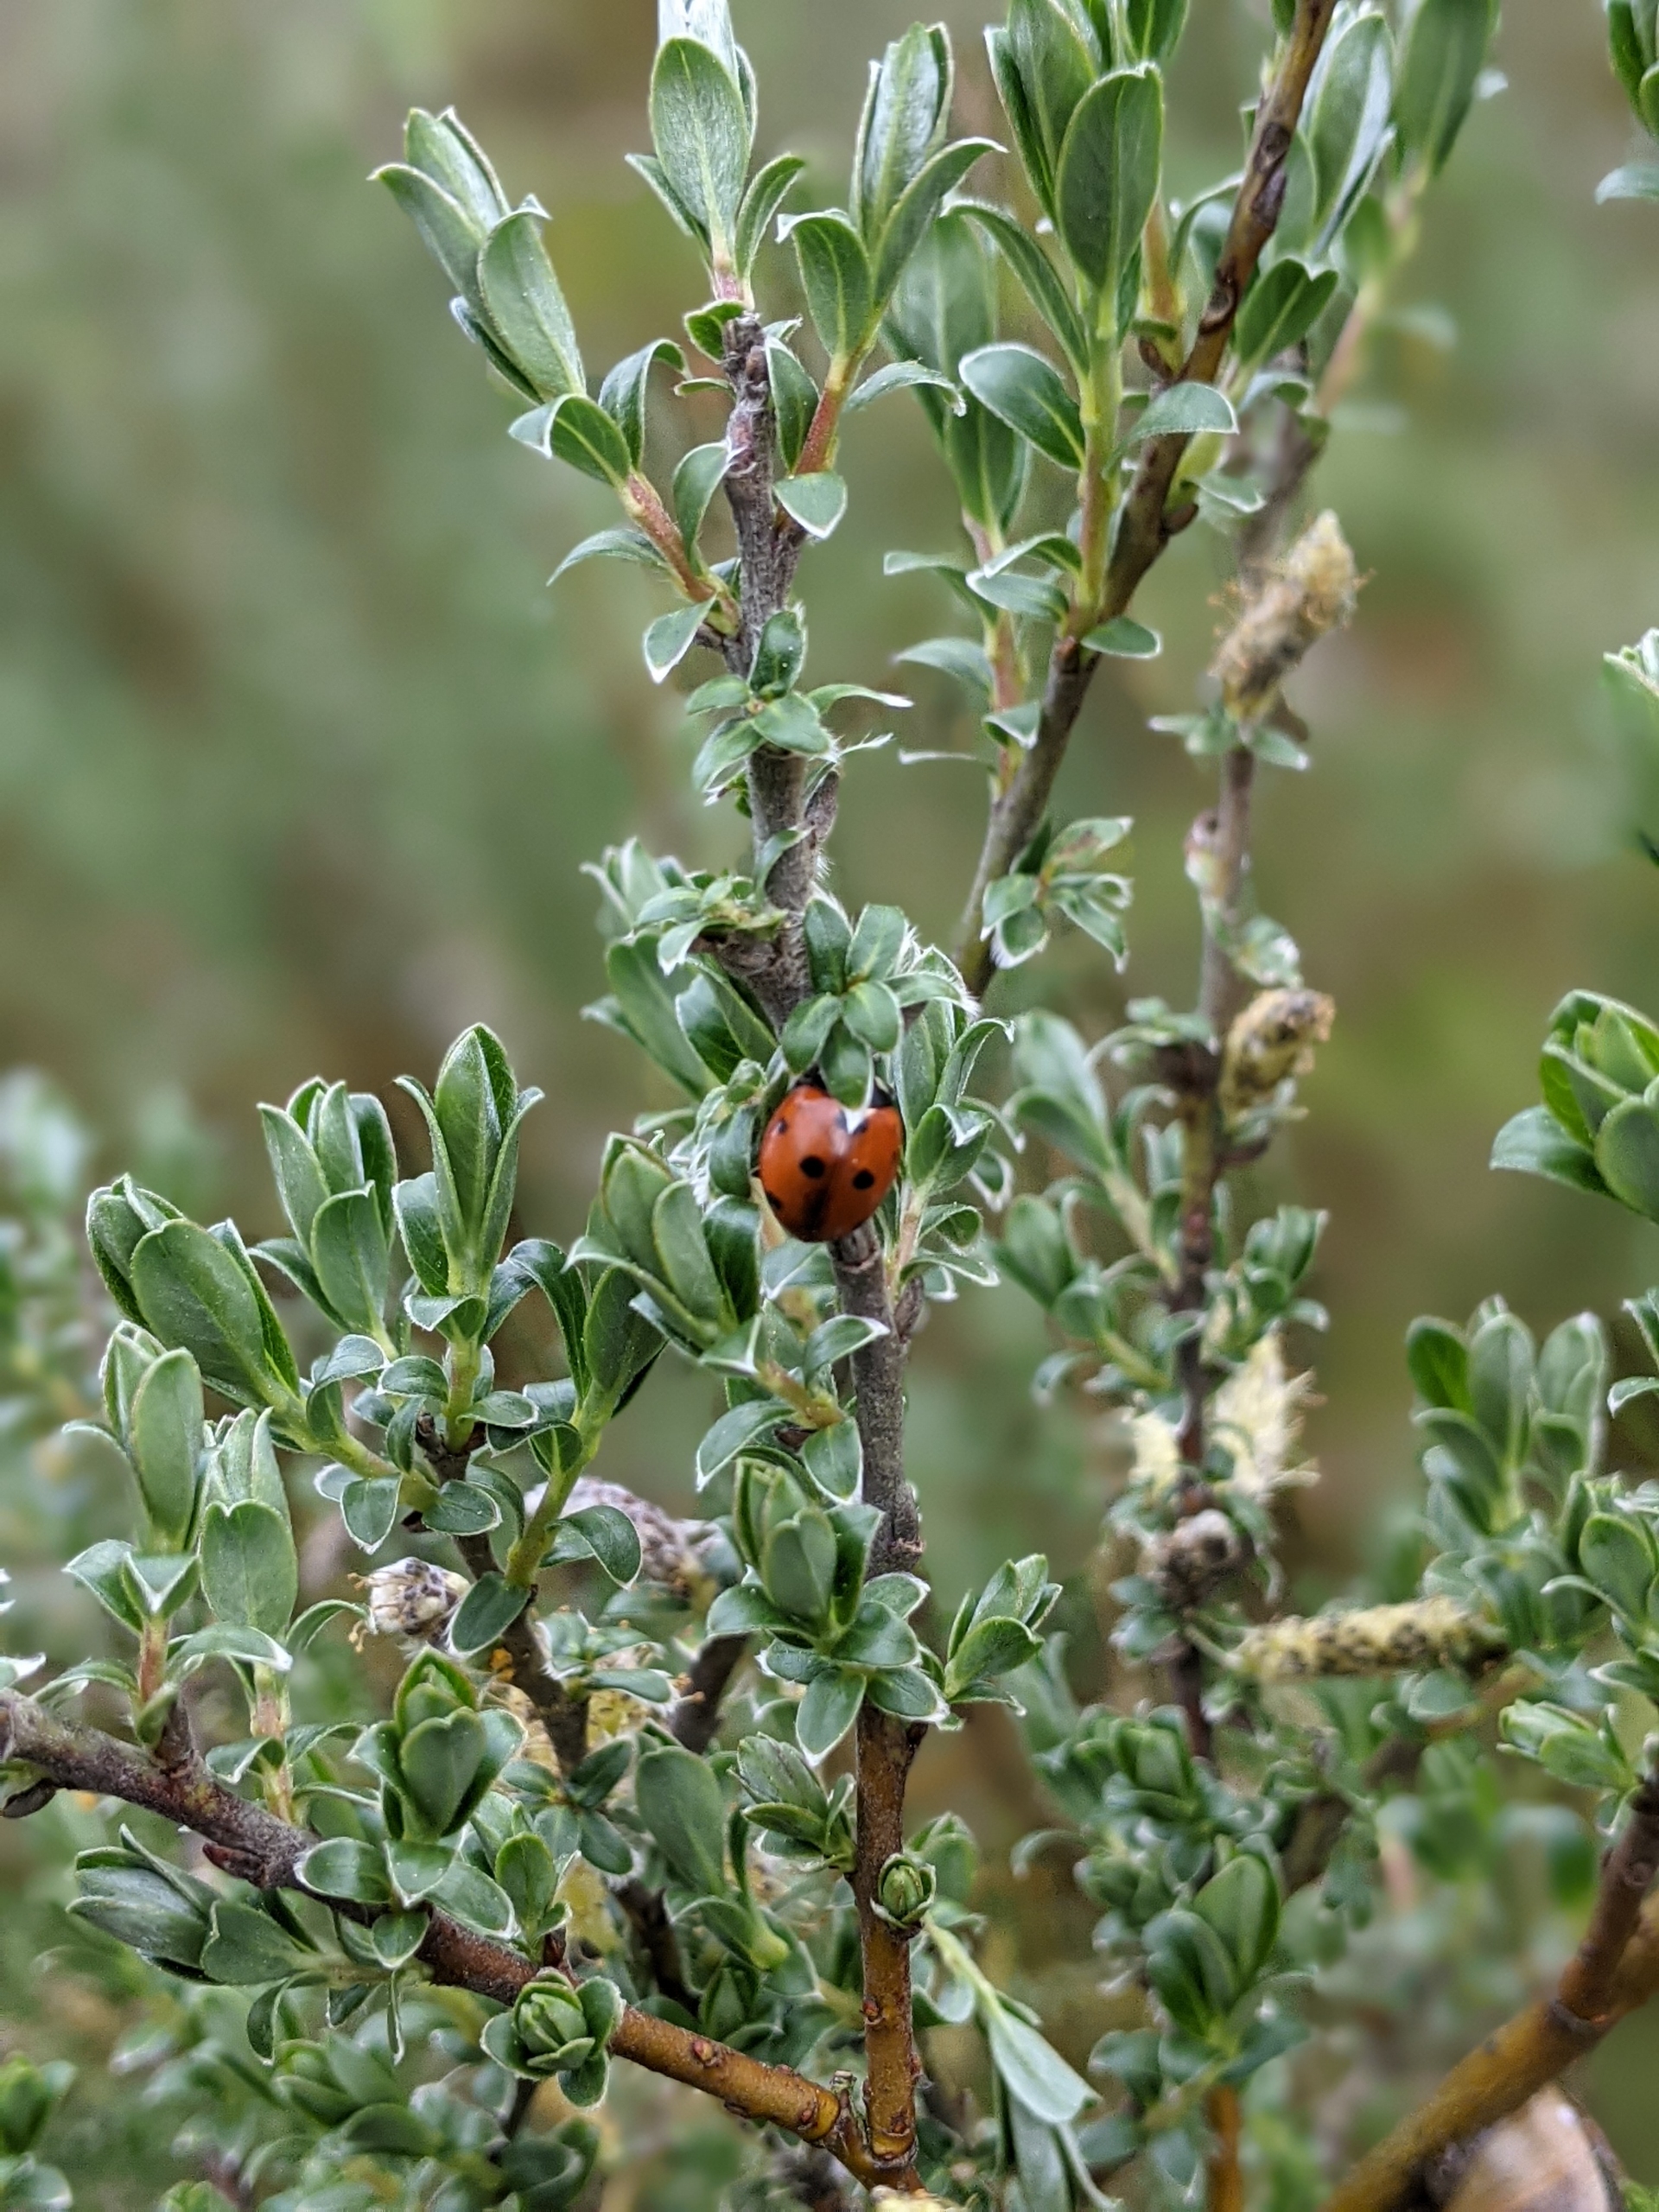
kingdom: Animalia
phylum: Arthropoda
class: Insecta
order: Coleoptera
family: Coccinellidae
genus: Coccinella
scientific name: Coccinella septempunctata
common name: Syvplettet mariehøne
